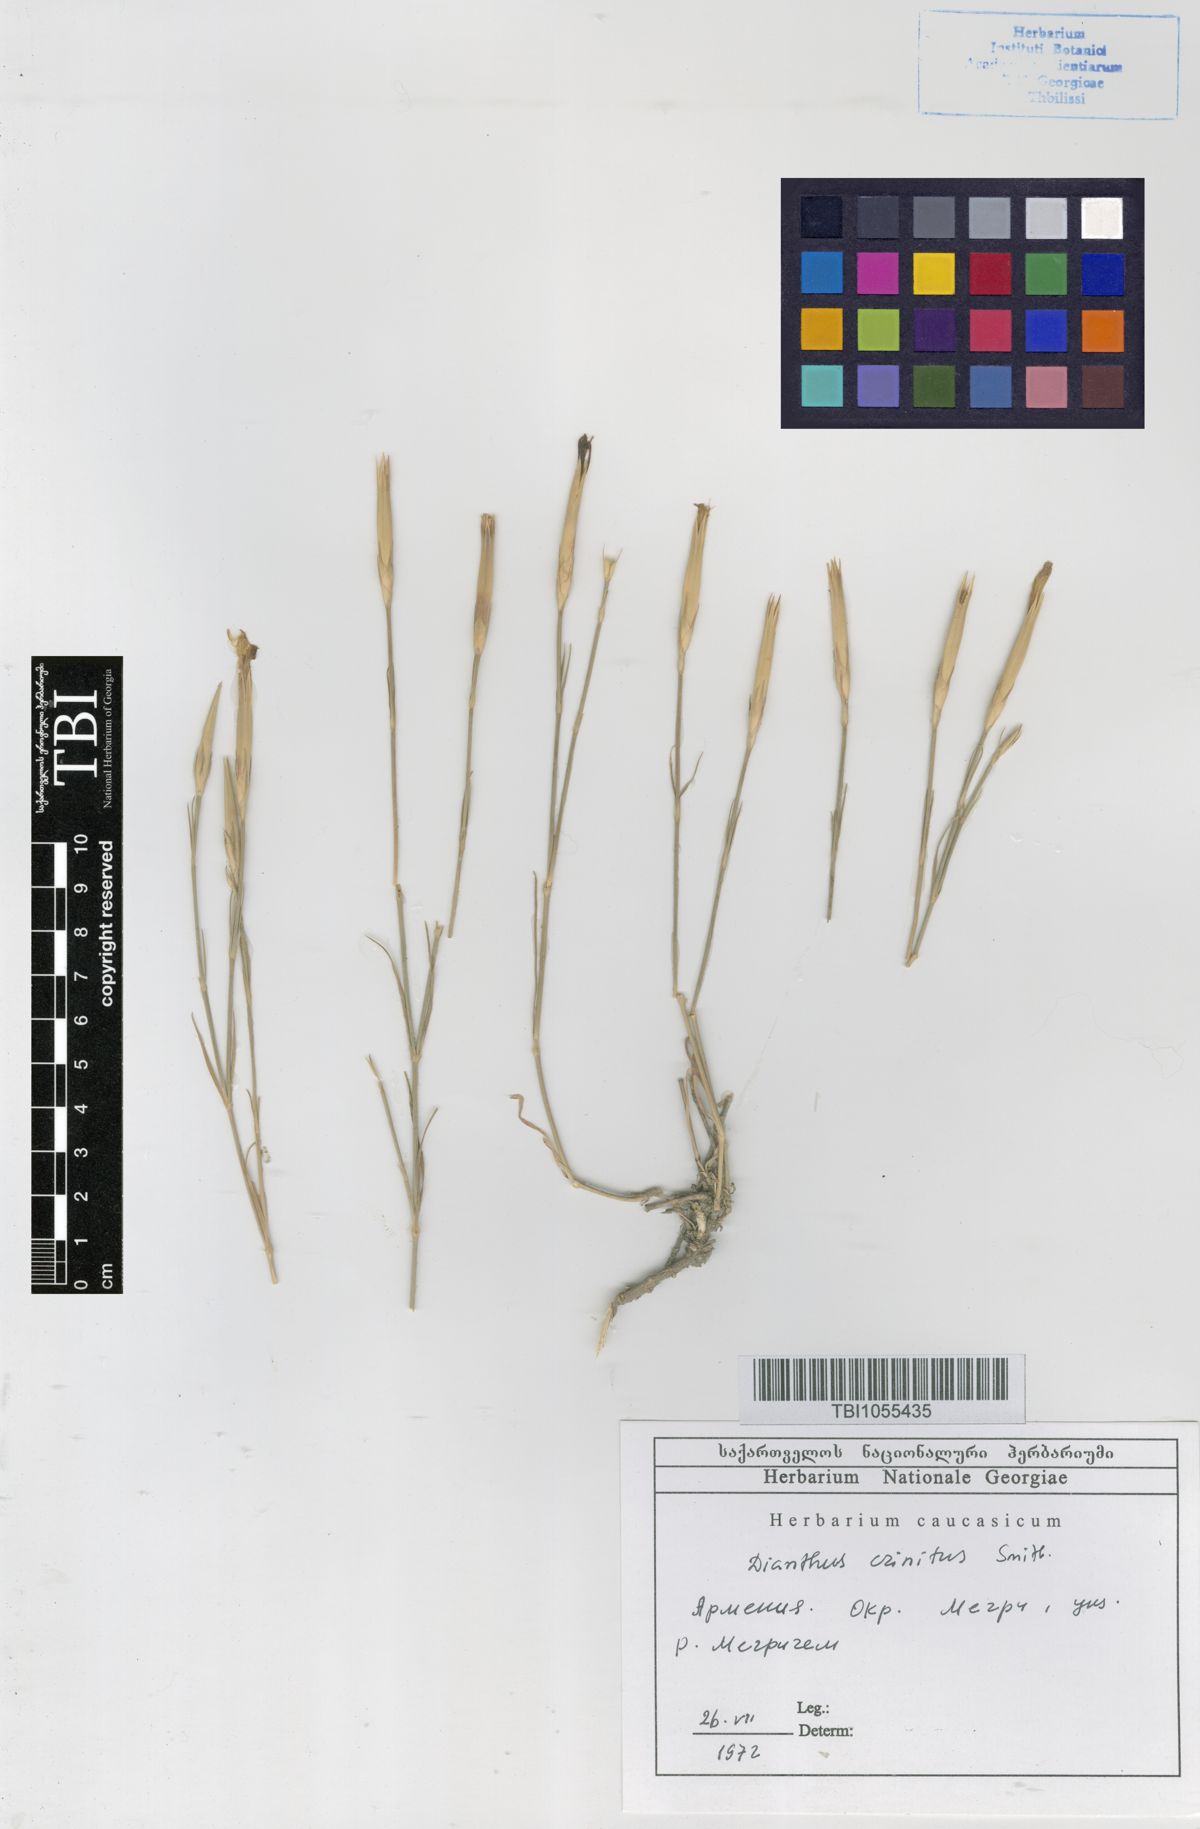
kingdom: Plantae
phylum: Tracheophyta
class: Magnoliopsida
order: Caryophyllales
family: Caryophyllaceae
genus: Dianthus
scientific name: Dianthus crinitus
